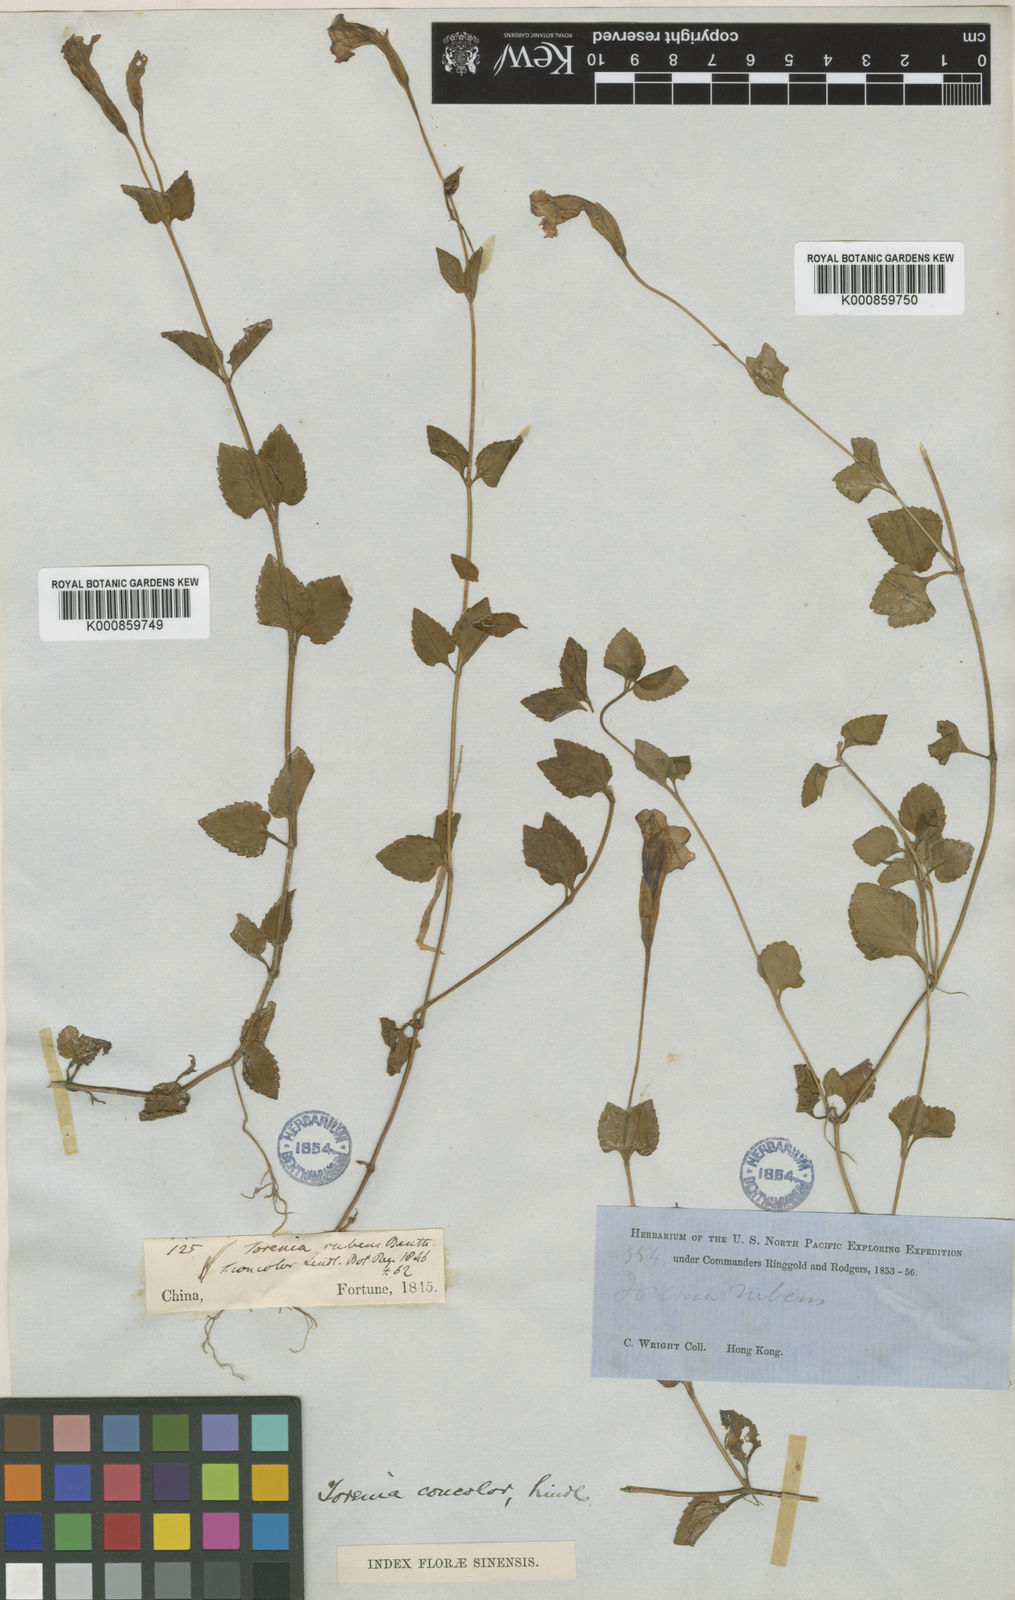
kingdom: Plantae
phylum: Tracheophyta
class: Magnoliopsida
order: Lamiales
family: Linderniaceae
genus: Torenia
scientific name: Torenia concolor
